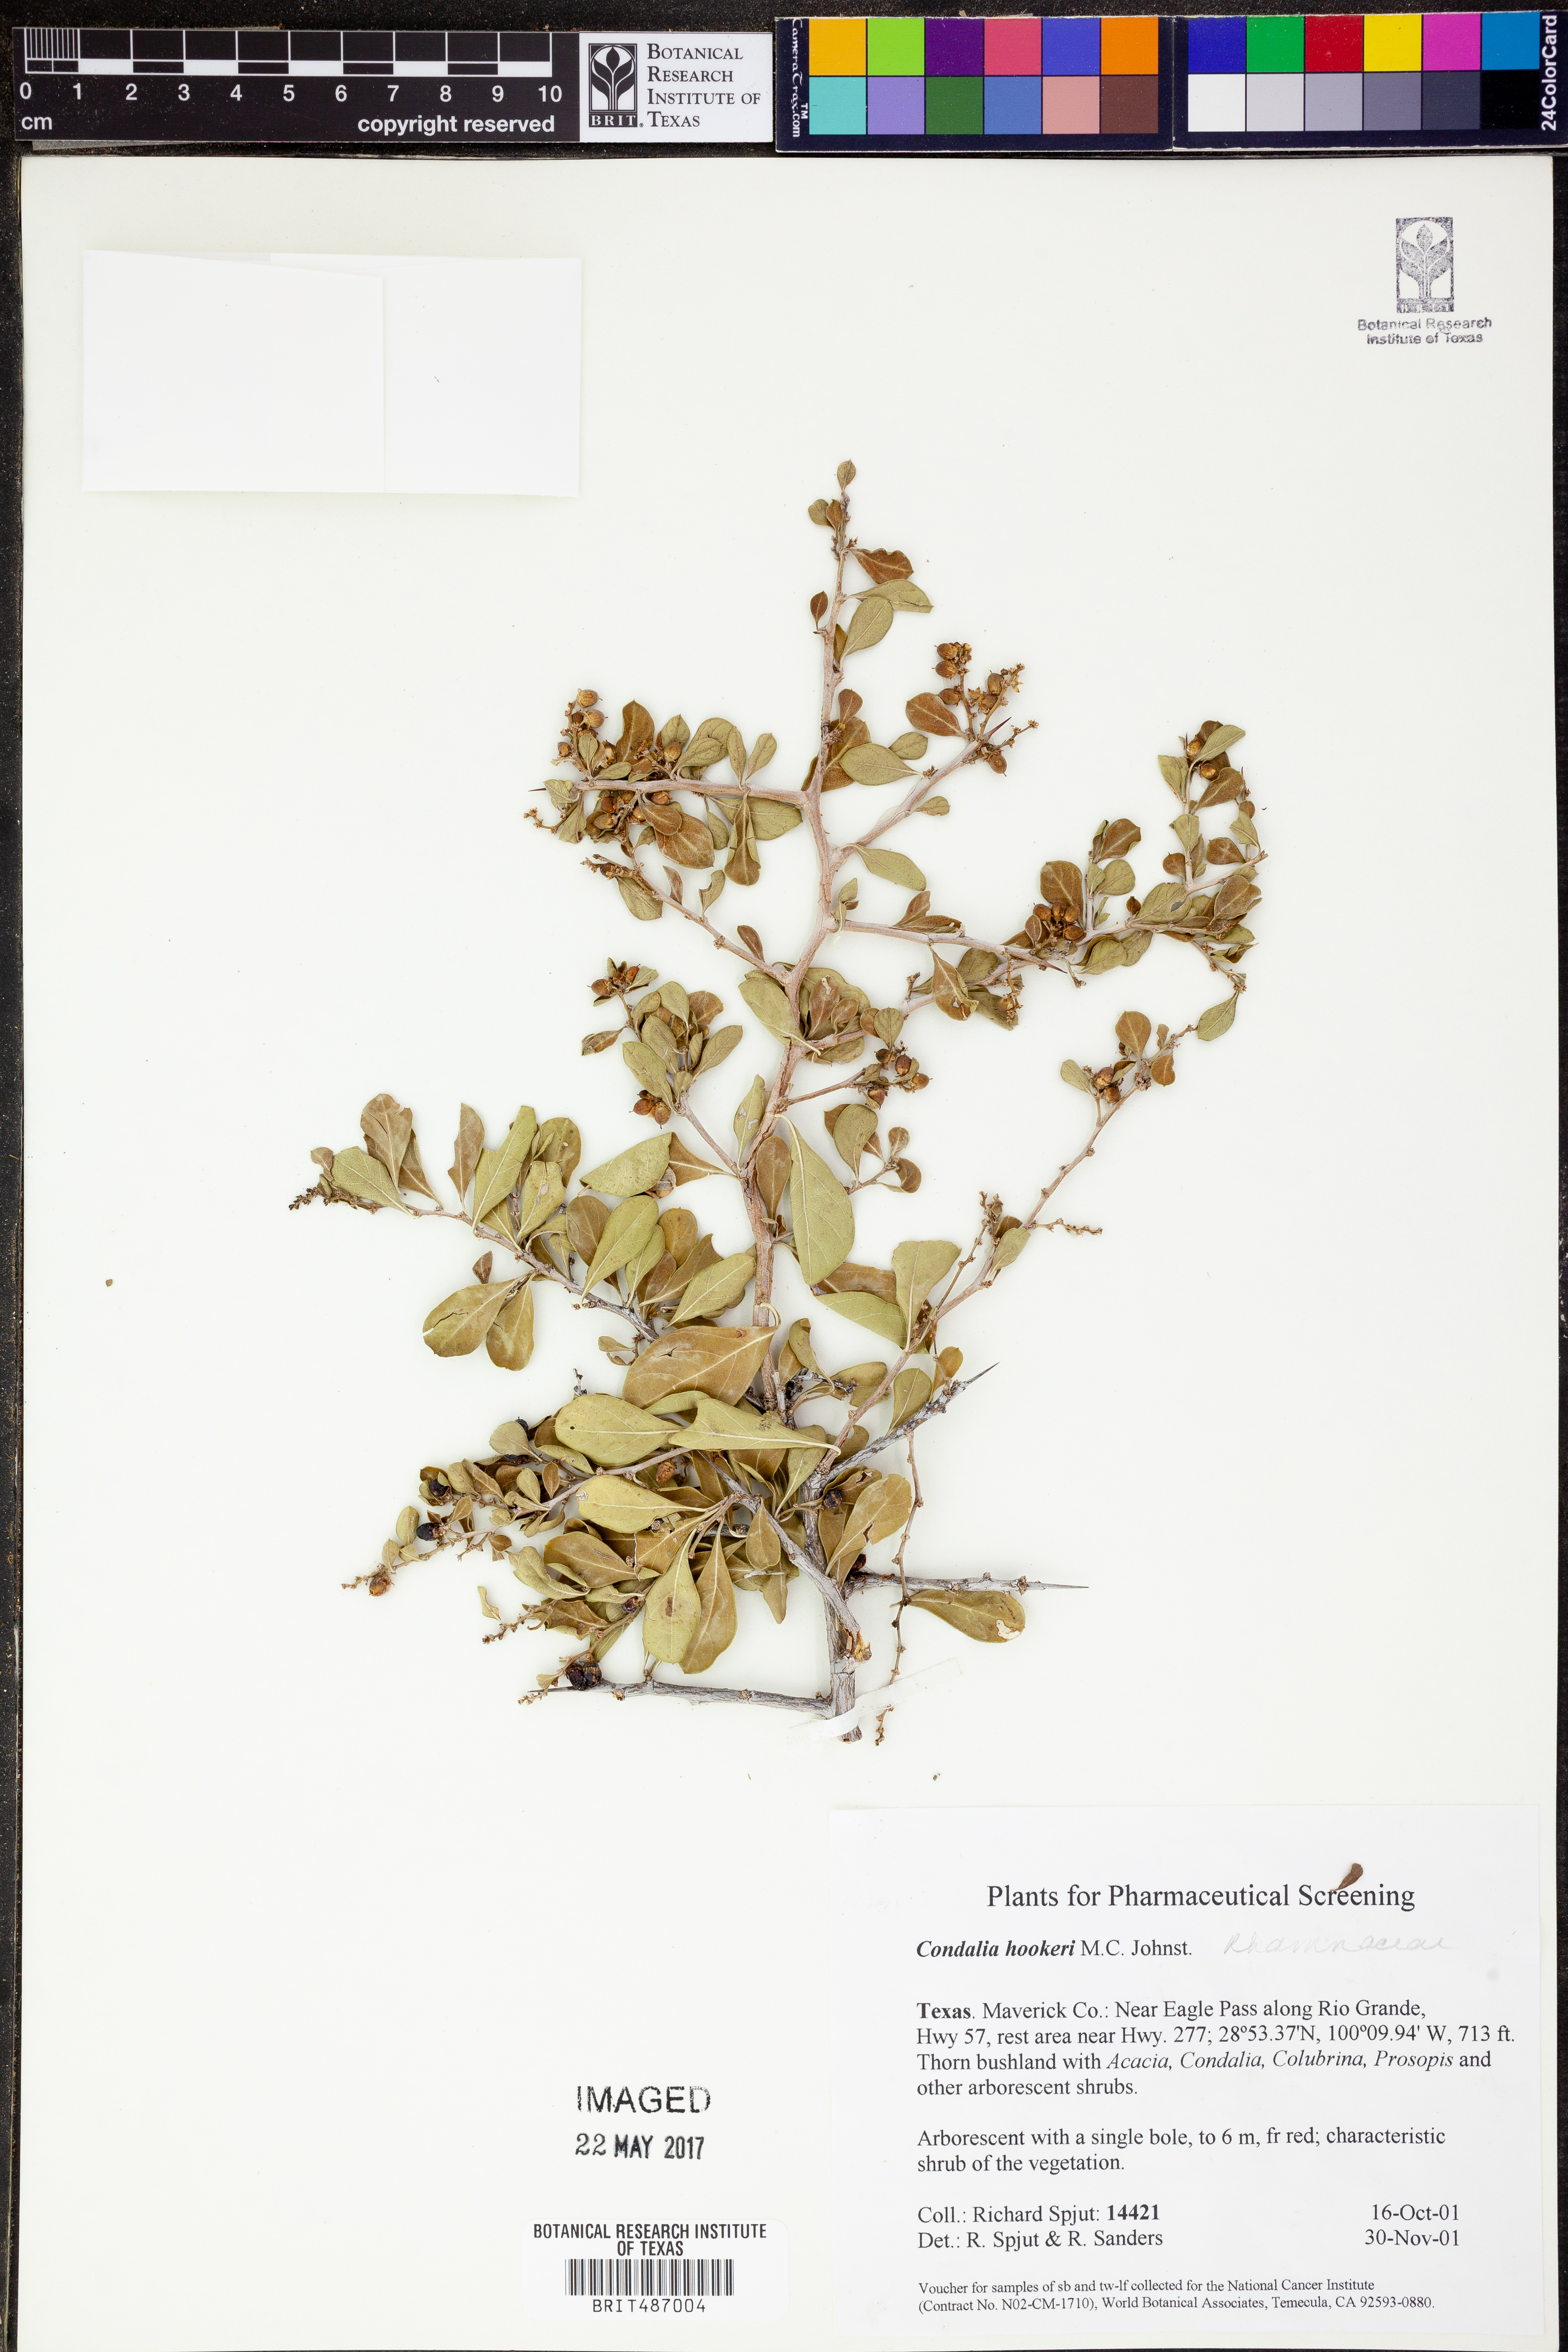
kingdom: Plantae
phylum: Tracheophyta
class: Magnoliopsida
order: Rosales
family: Rhamnaceae
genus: Condalia
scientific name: Condalia hookeri
